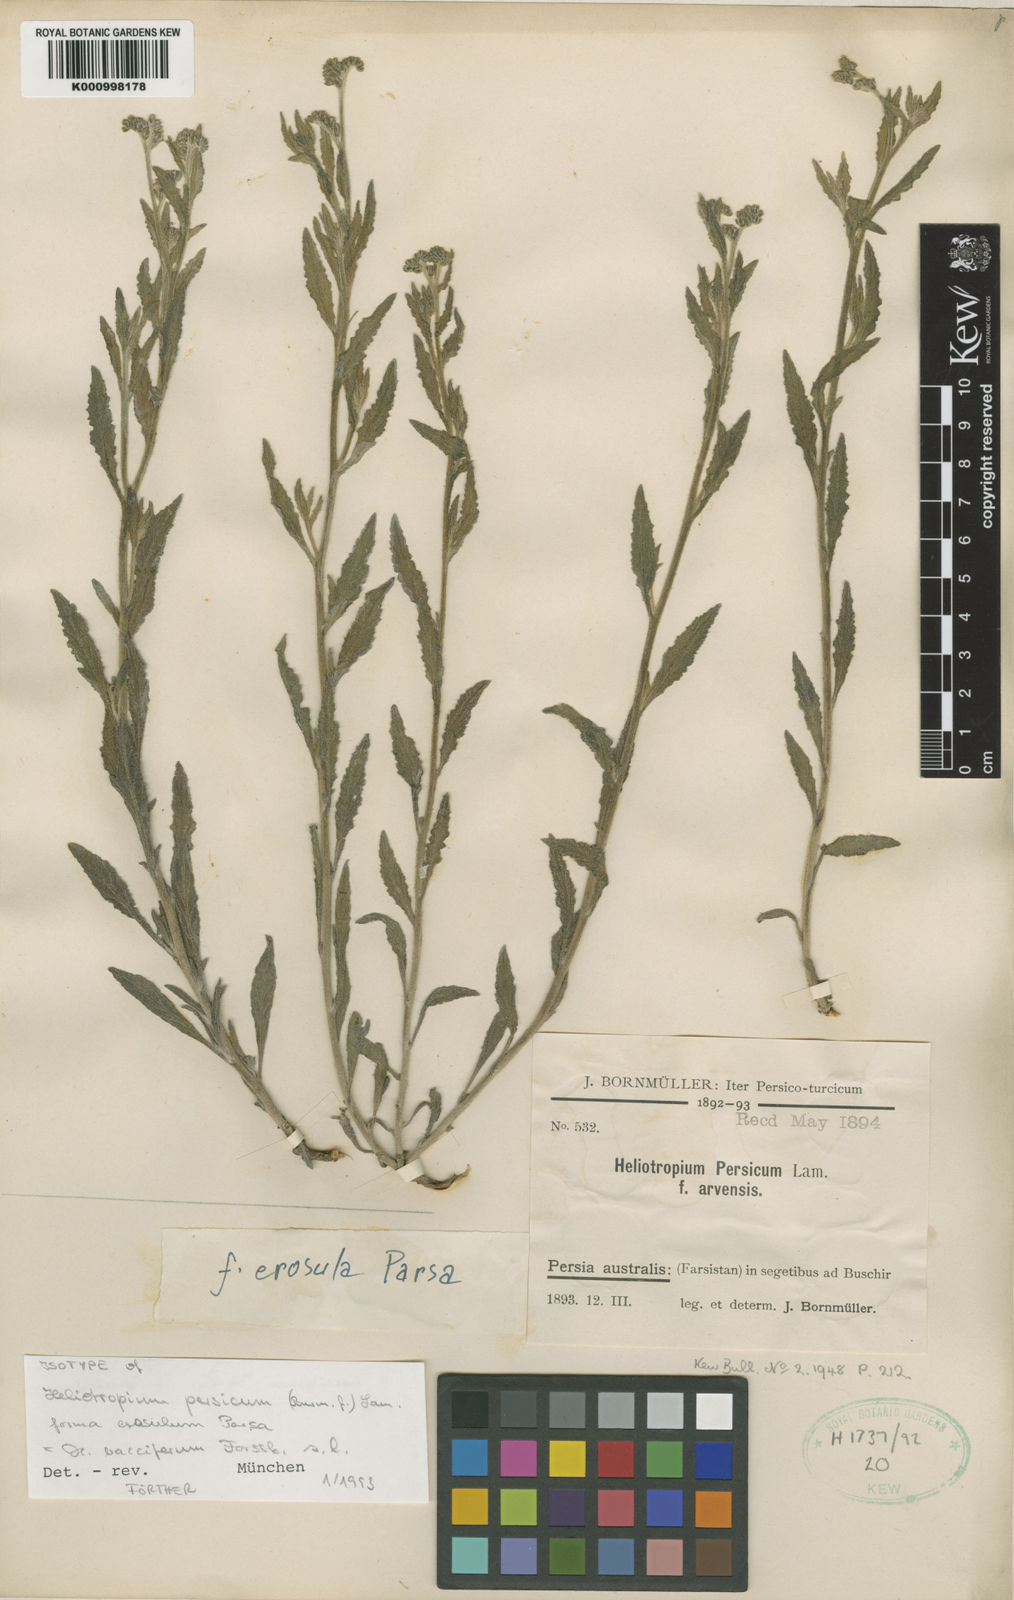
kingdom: Plantae
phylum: Tracheophyta
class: Magnoliopsida
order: Boraginales
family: Heliotropiaceae
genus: Heliotropium
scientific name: Heliotropium ramosissimum
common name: Wavy heliotrope
